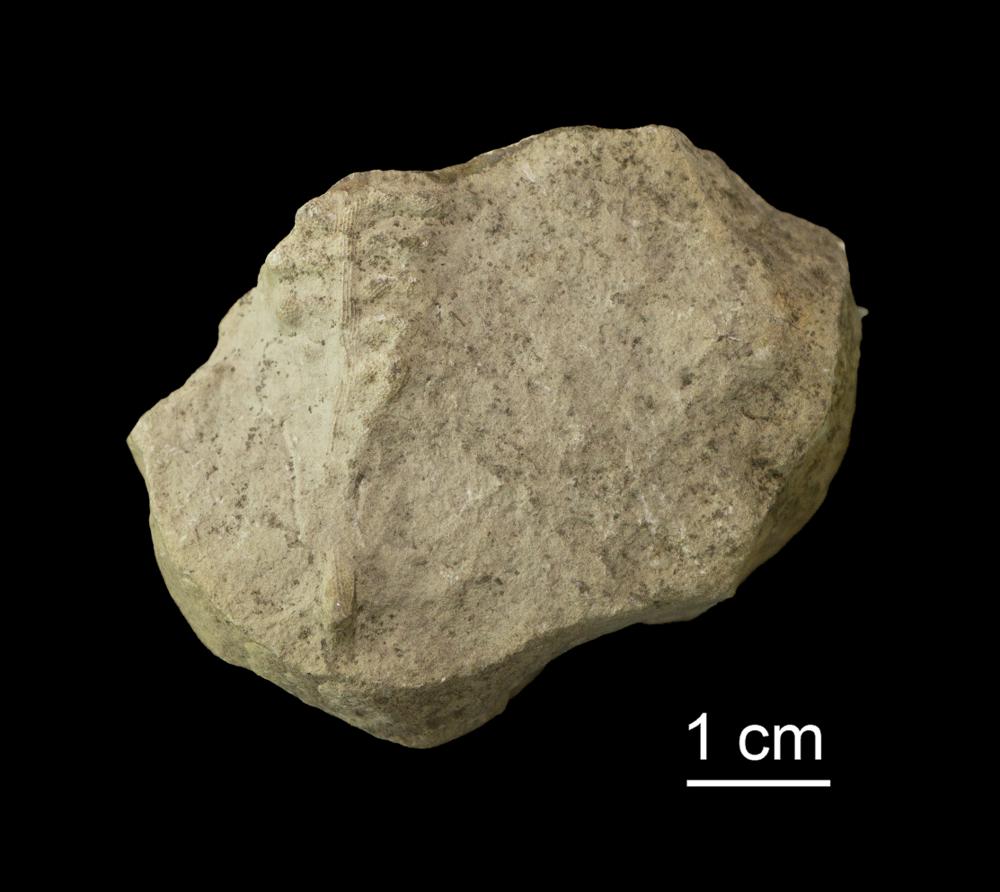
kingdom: Animalia
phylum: Bryozoa
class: Stenolaemata
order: Cryptostomida
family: Ptilodictyidae
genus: Ptilodictya
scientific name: Ptilodictya flabellata
